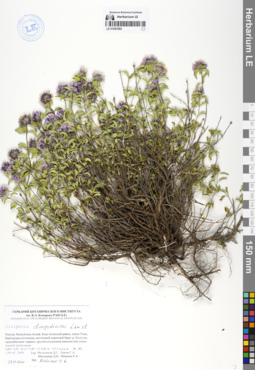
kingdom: Plantae
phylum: Tracheophyta
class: Magnoliopsida
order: Lamiales
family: Lamiaceae
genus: Ziziphora
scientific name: Ziziphora clinopodioides
